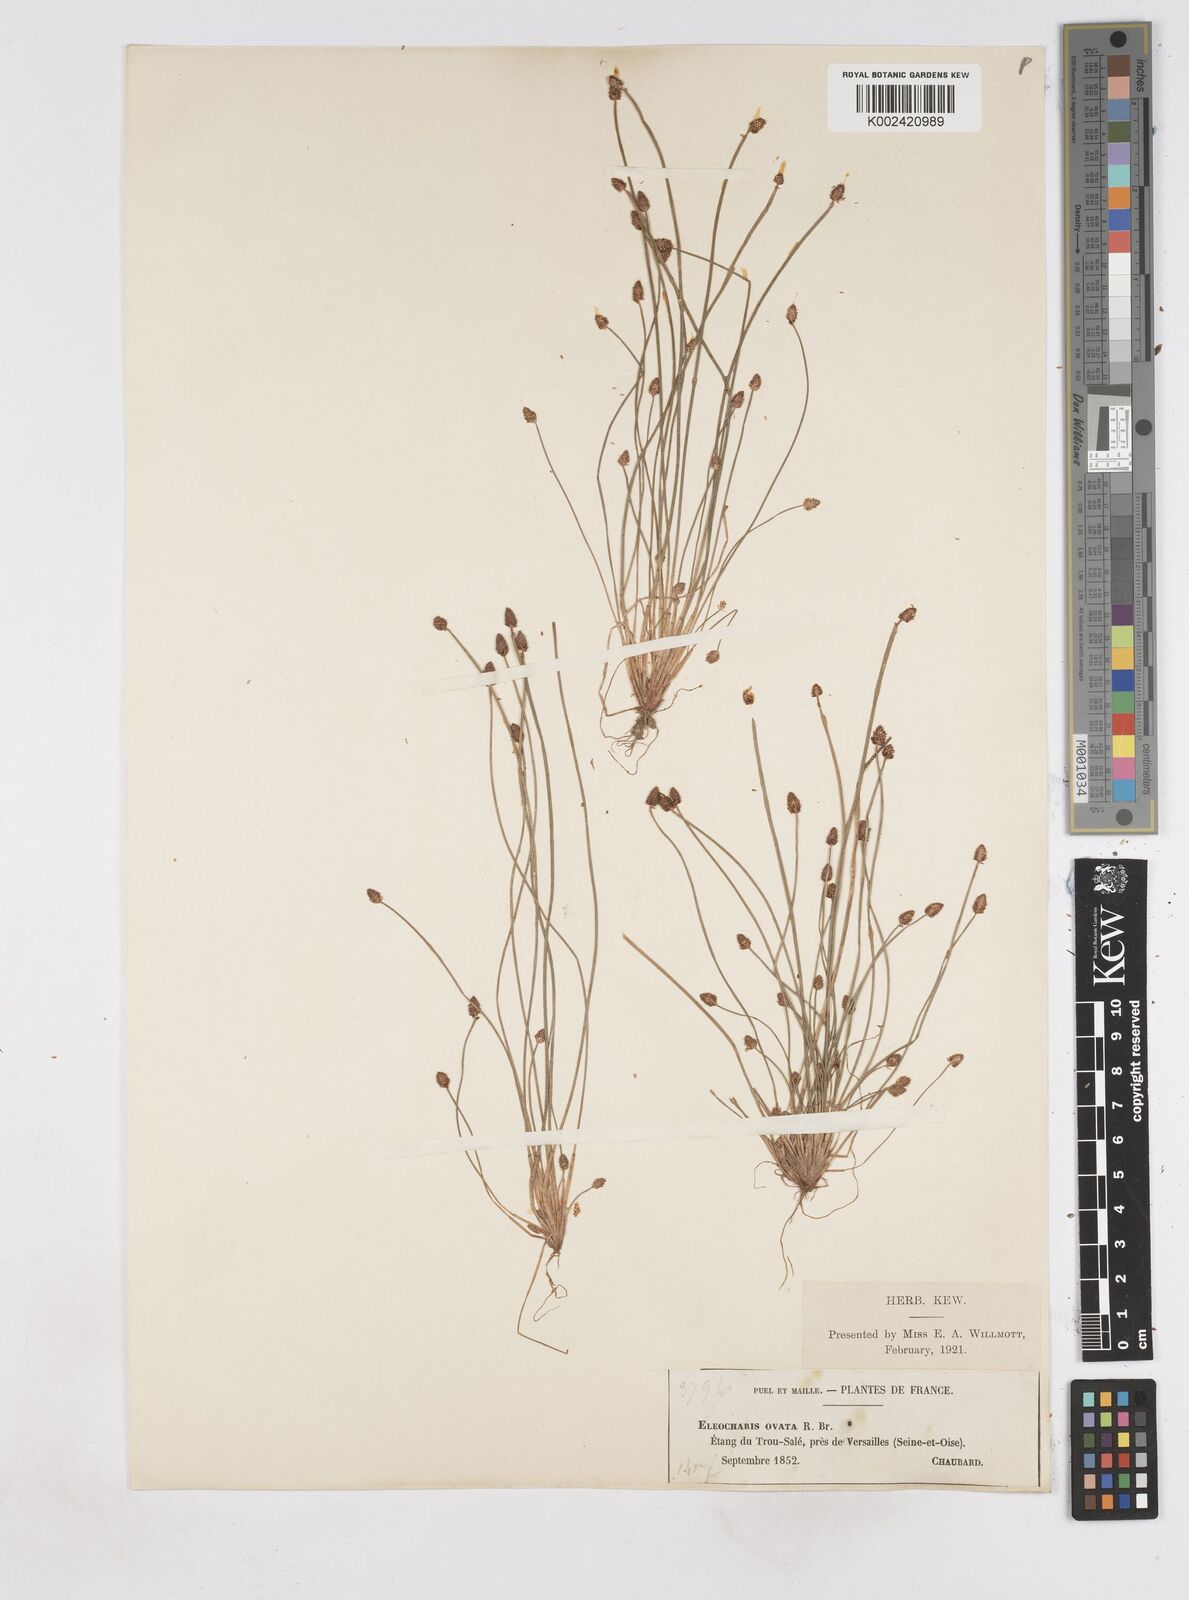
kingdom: Plantae
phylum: Tracheophyta
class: Liliopsida
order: Poales
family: Cyperaceae
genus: Eleocharis
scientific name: Eleocharis ovata
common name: Oval spike-rush
